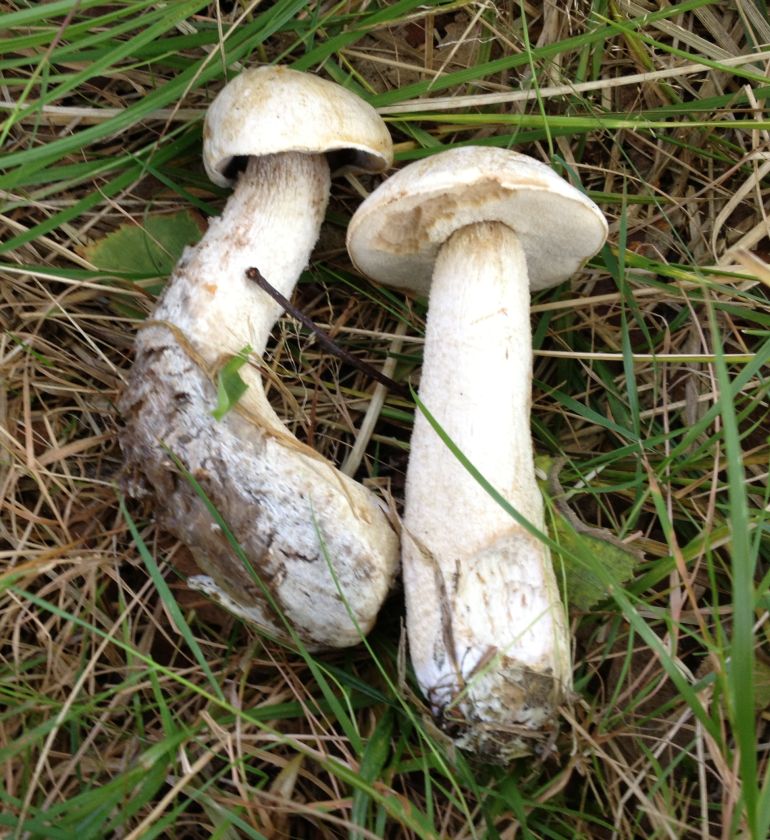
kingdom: Fungi
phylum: Basidiomycota
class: Agaricomycetes
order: Boletales
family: Boletaceae
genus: Leccinum
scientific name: Leccinum
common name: skælrørhat
